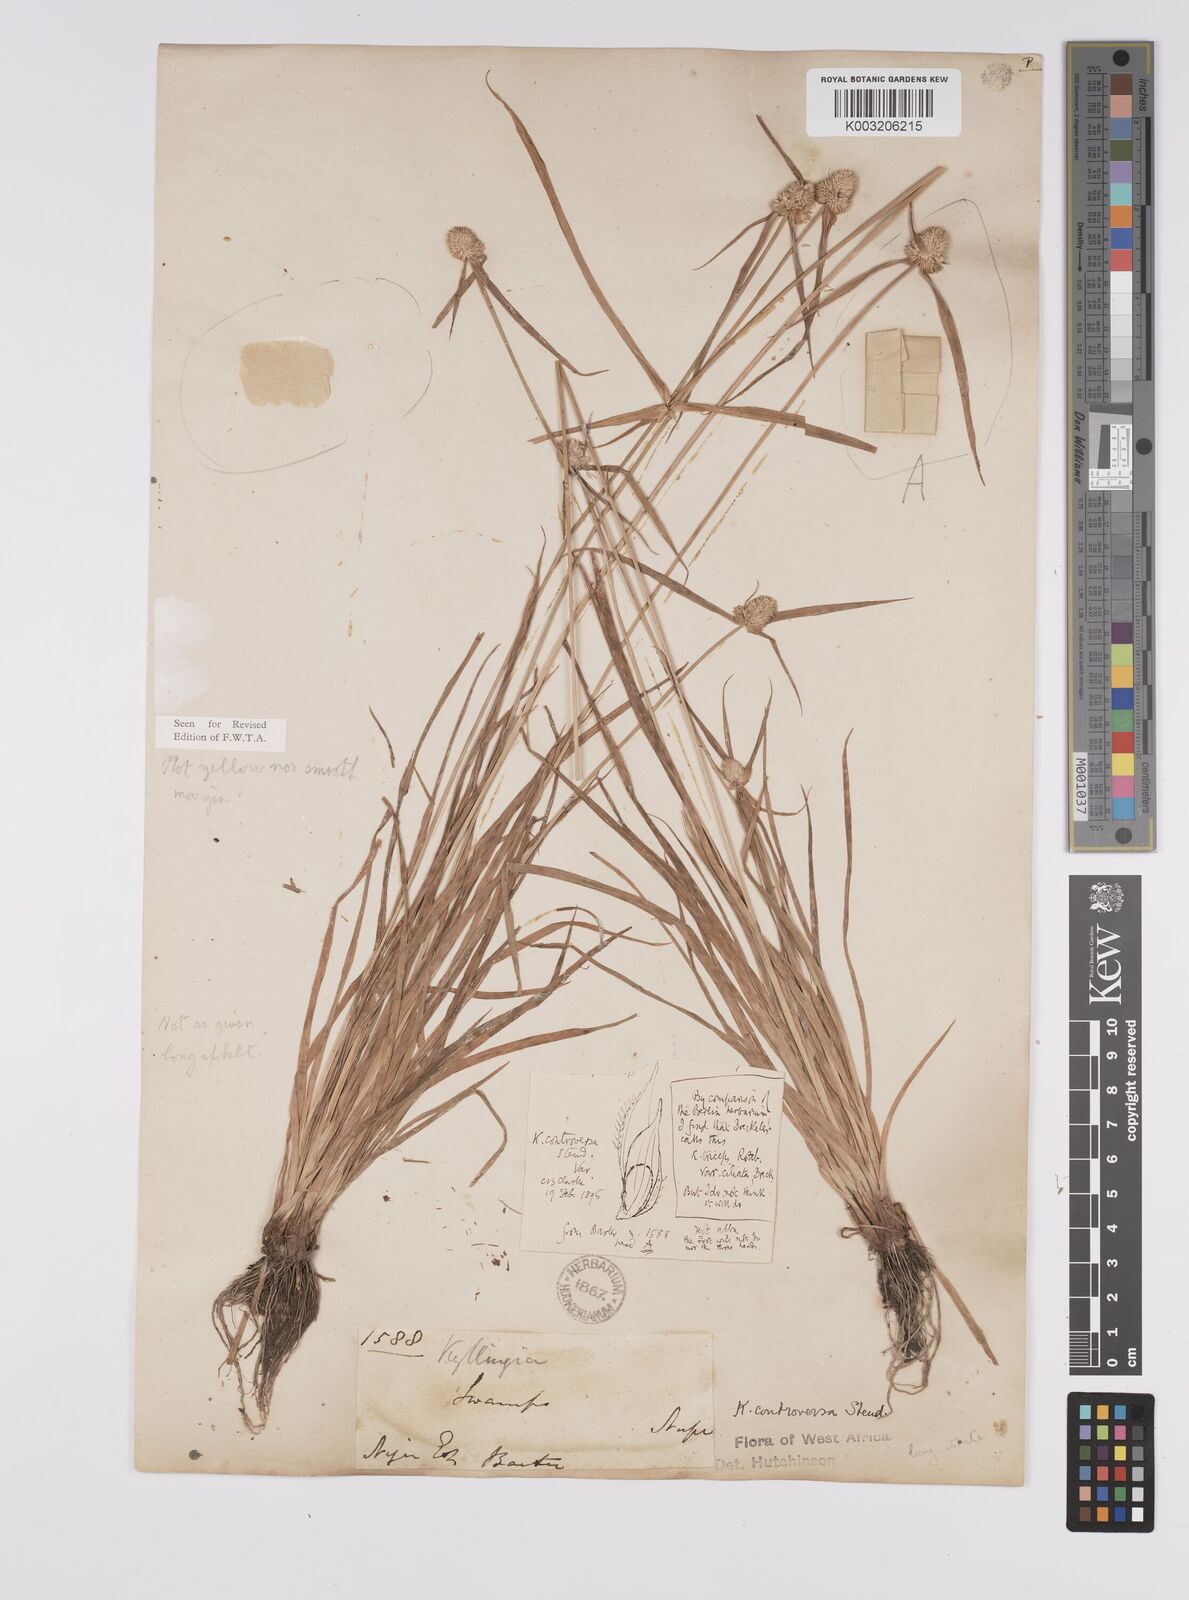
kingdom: Plantae
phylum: Tracheophyta
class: Liliopsida
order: Poales
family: Cyperaceae
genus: Cyperus
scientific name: Cyperus
